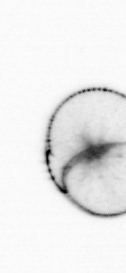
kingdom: Chromista
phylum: Myzozoa
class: Dinophyceae
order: Noctilucales
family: Noctilucaceae
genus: Noctiluca
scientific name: Noctiluca scintillans
